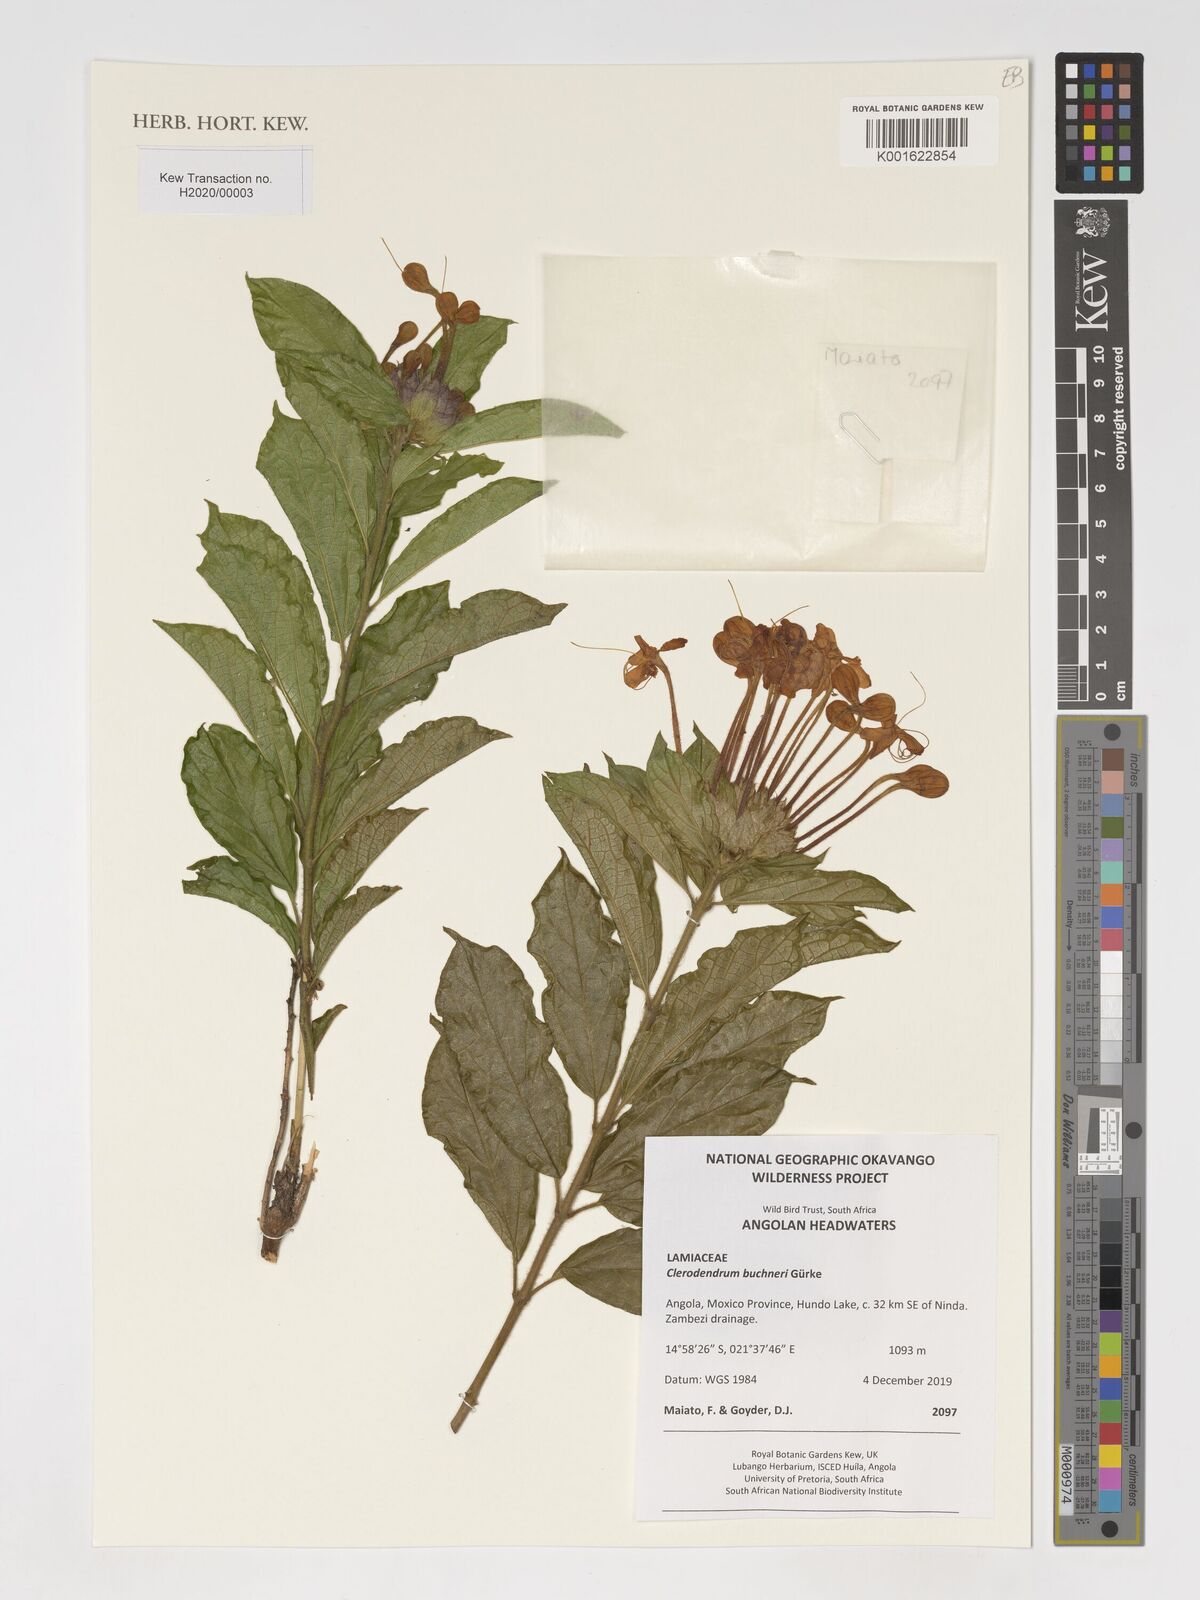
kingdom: Plantae
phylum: Tracheophyta
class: Magnoliopsida
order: Lamiales
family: Lamiaceae
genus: Clerodendrum
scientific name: Clerodendrum buchneri
